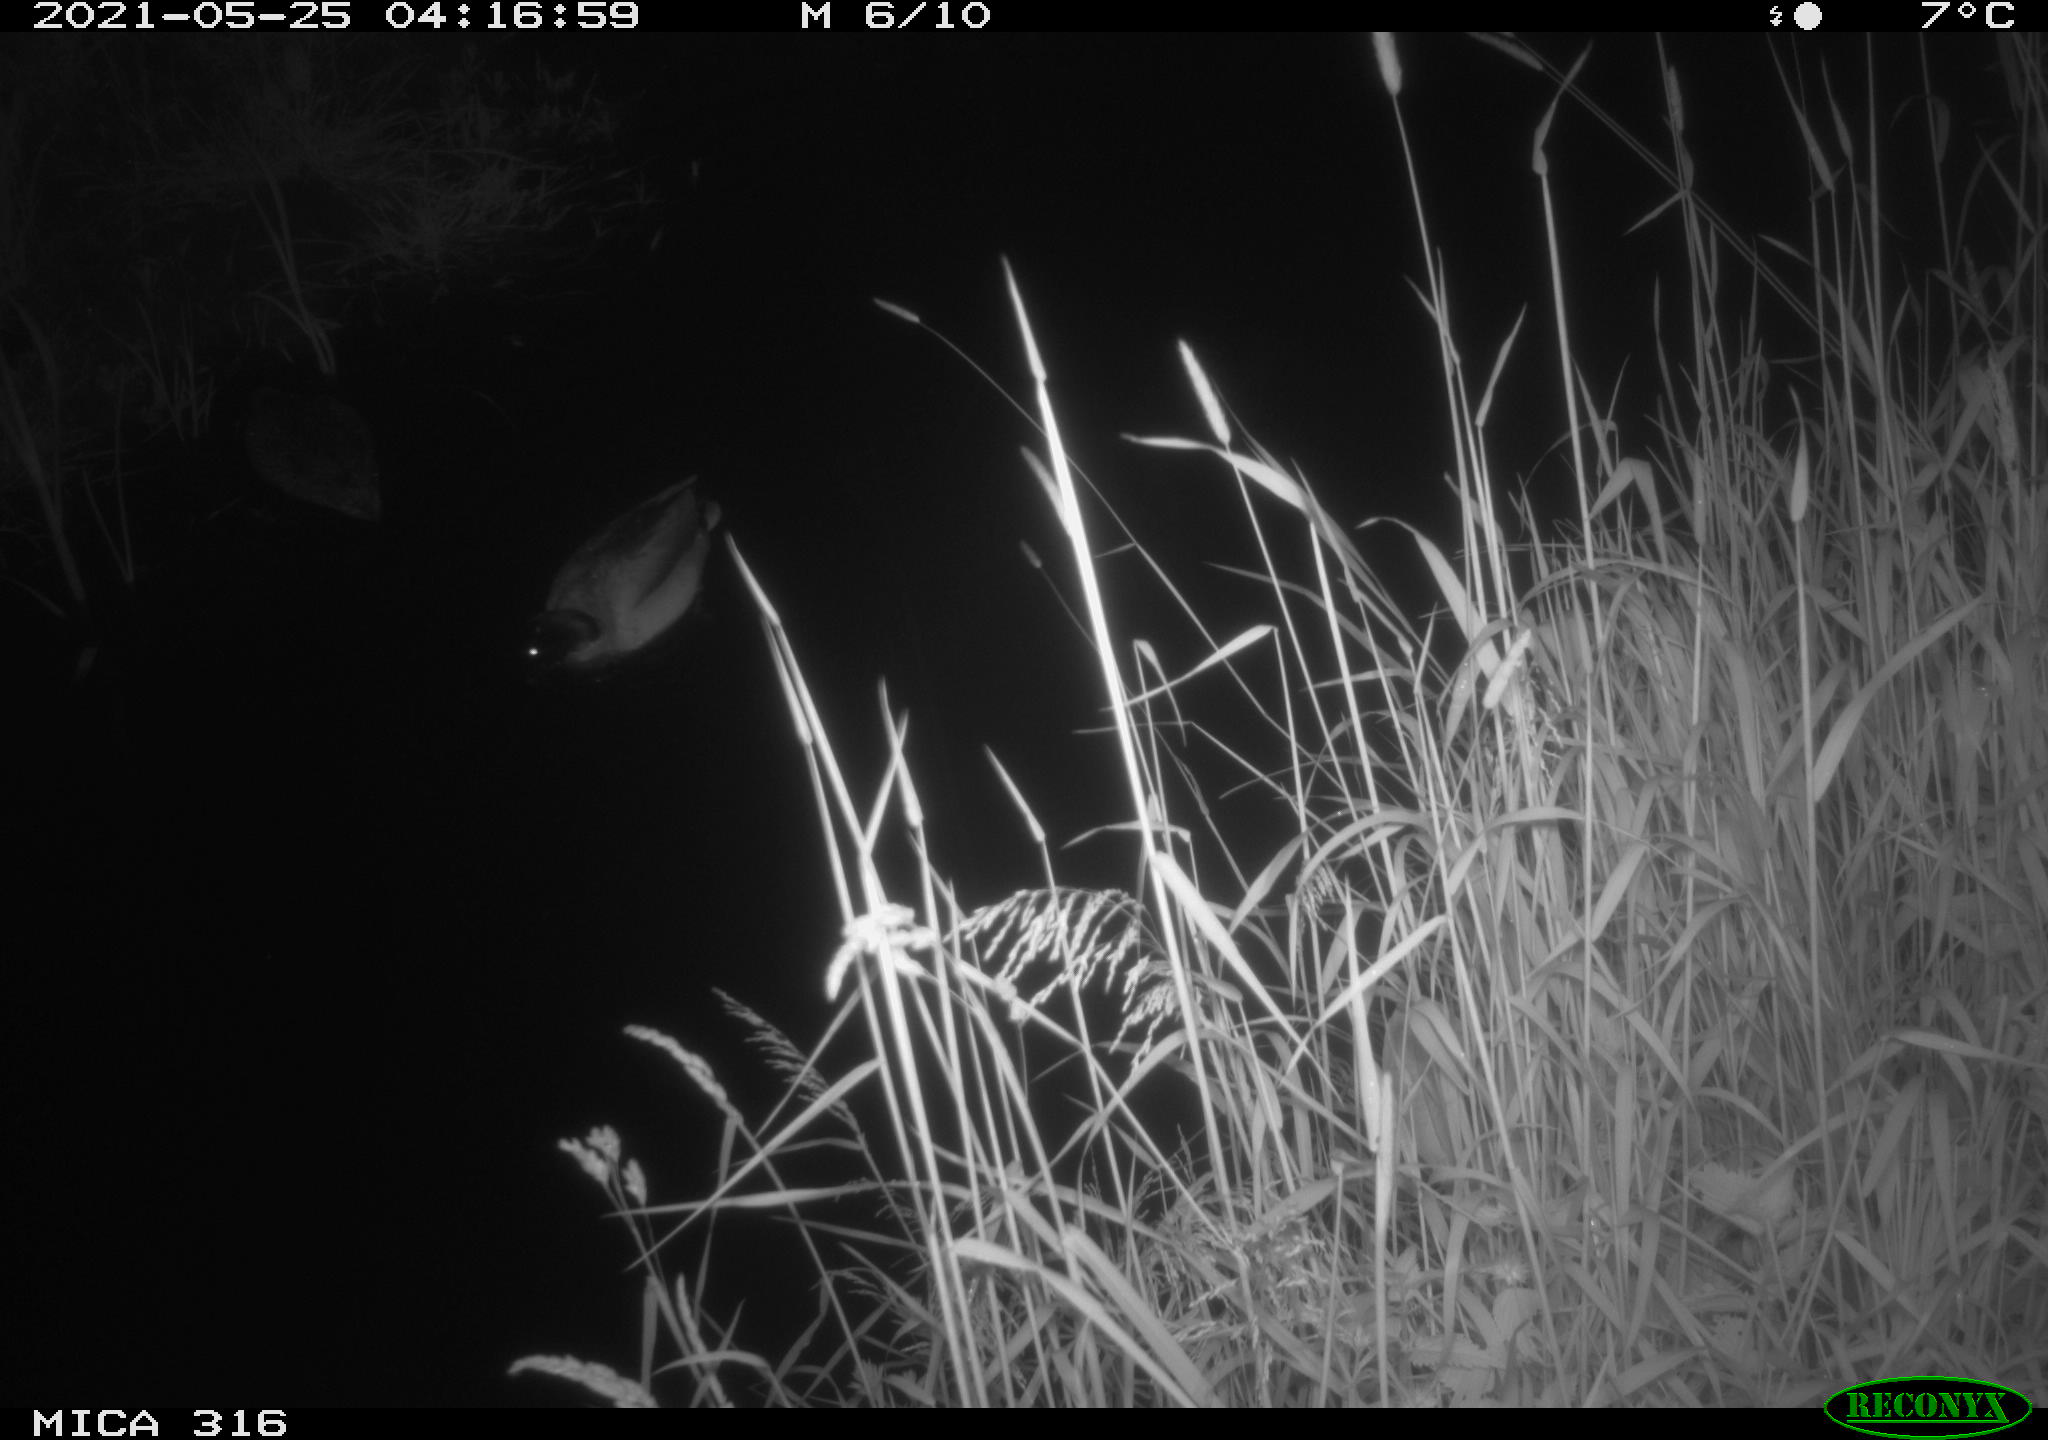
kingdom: Animalia
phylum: Chordata
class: Aves
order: Anseriformes
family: Anatidae
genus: Anas
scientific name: Anas platyrhynchos
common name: Mallard
